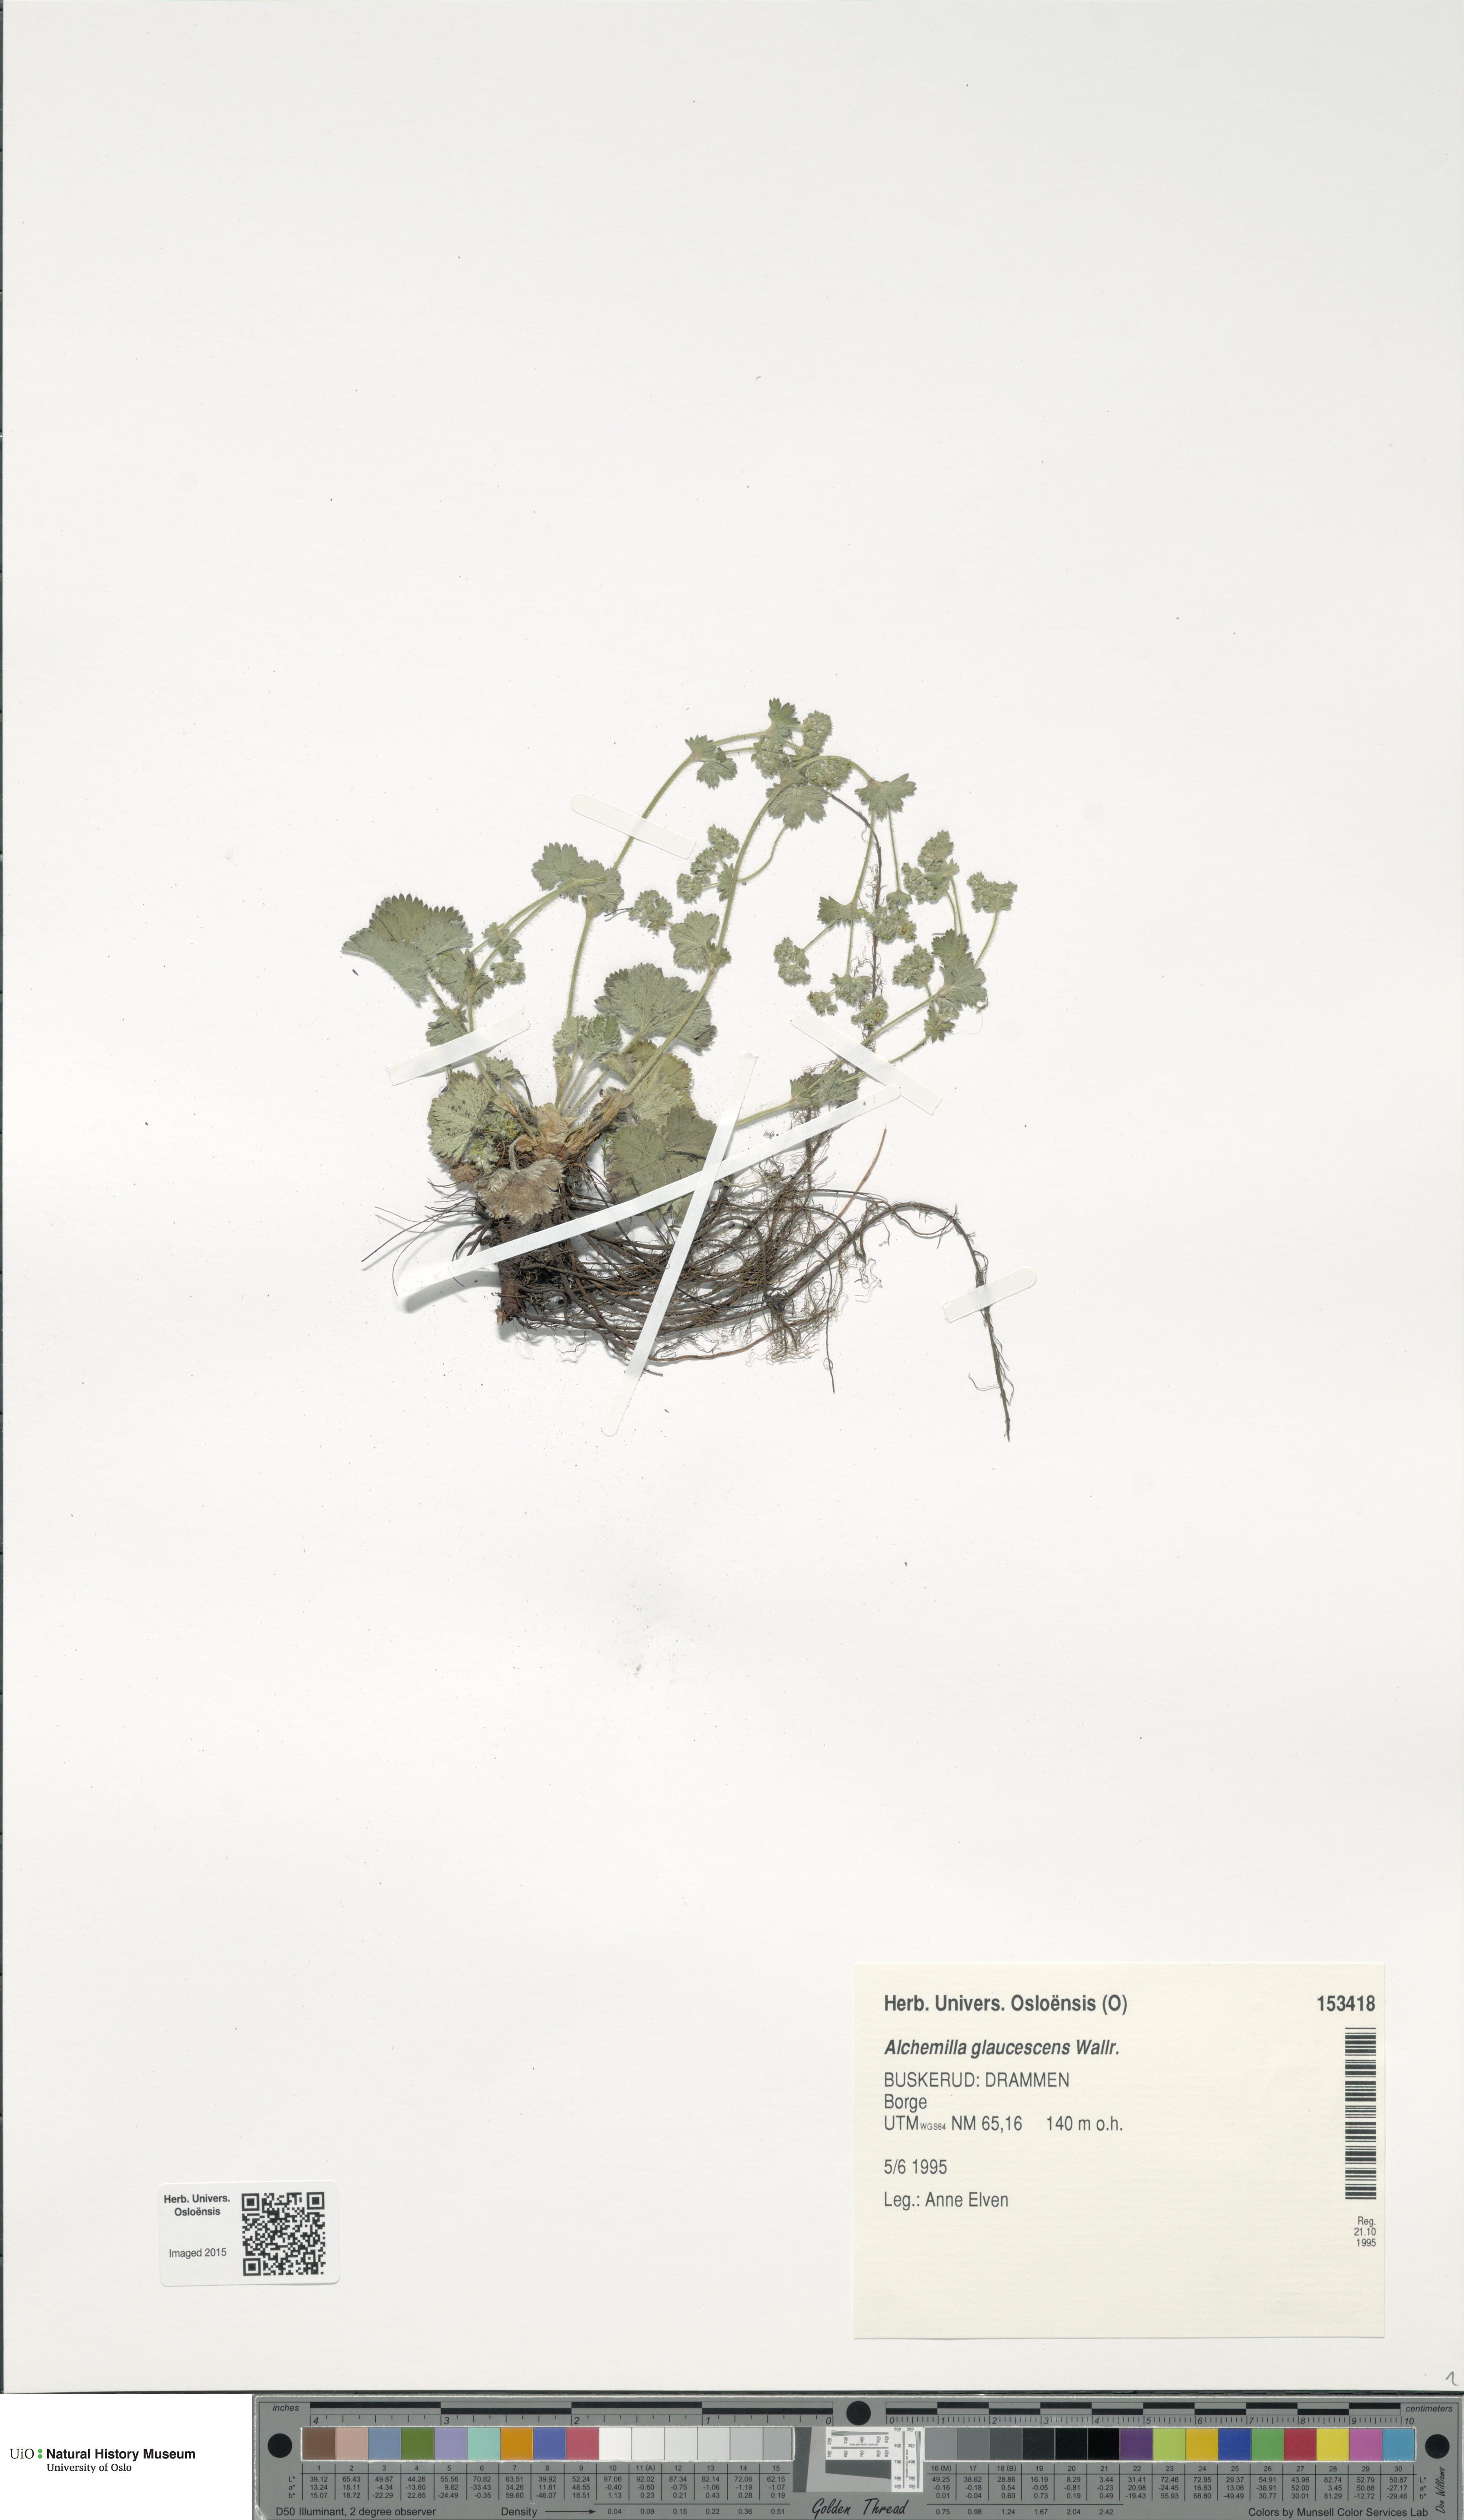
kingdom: Plantae
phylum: Tracheophyta
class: Magnoliopsida
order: Rosales
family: Rosaceae
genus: Alchemilla
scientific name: Alchemilla glaucescens
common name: Silky lady's mantle
